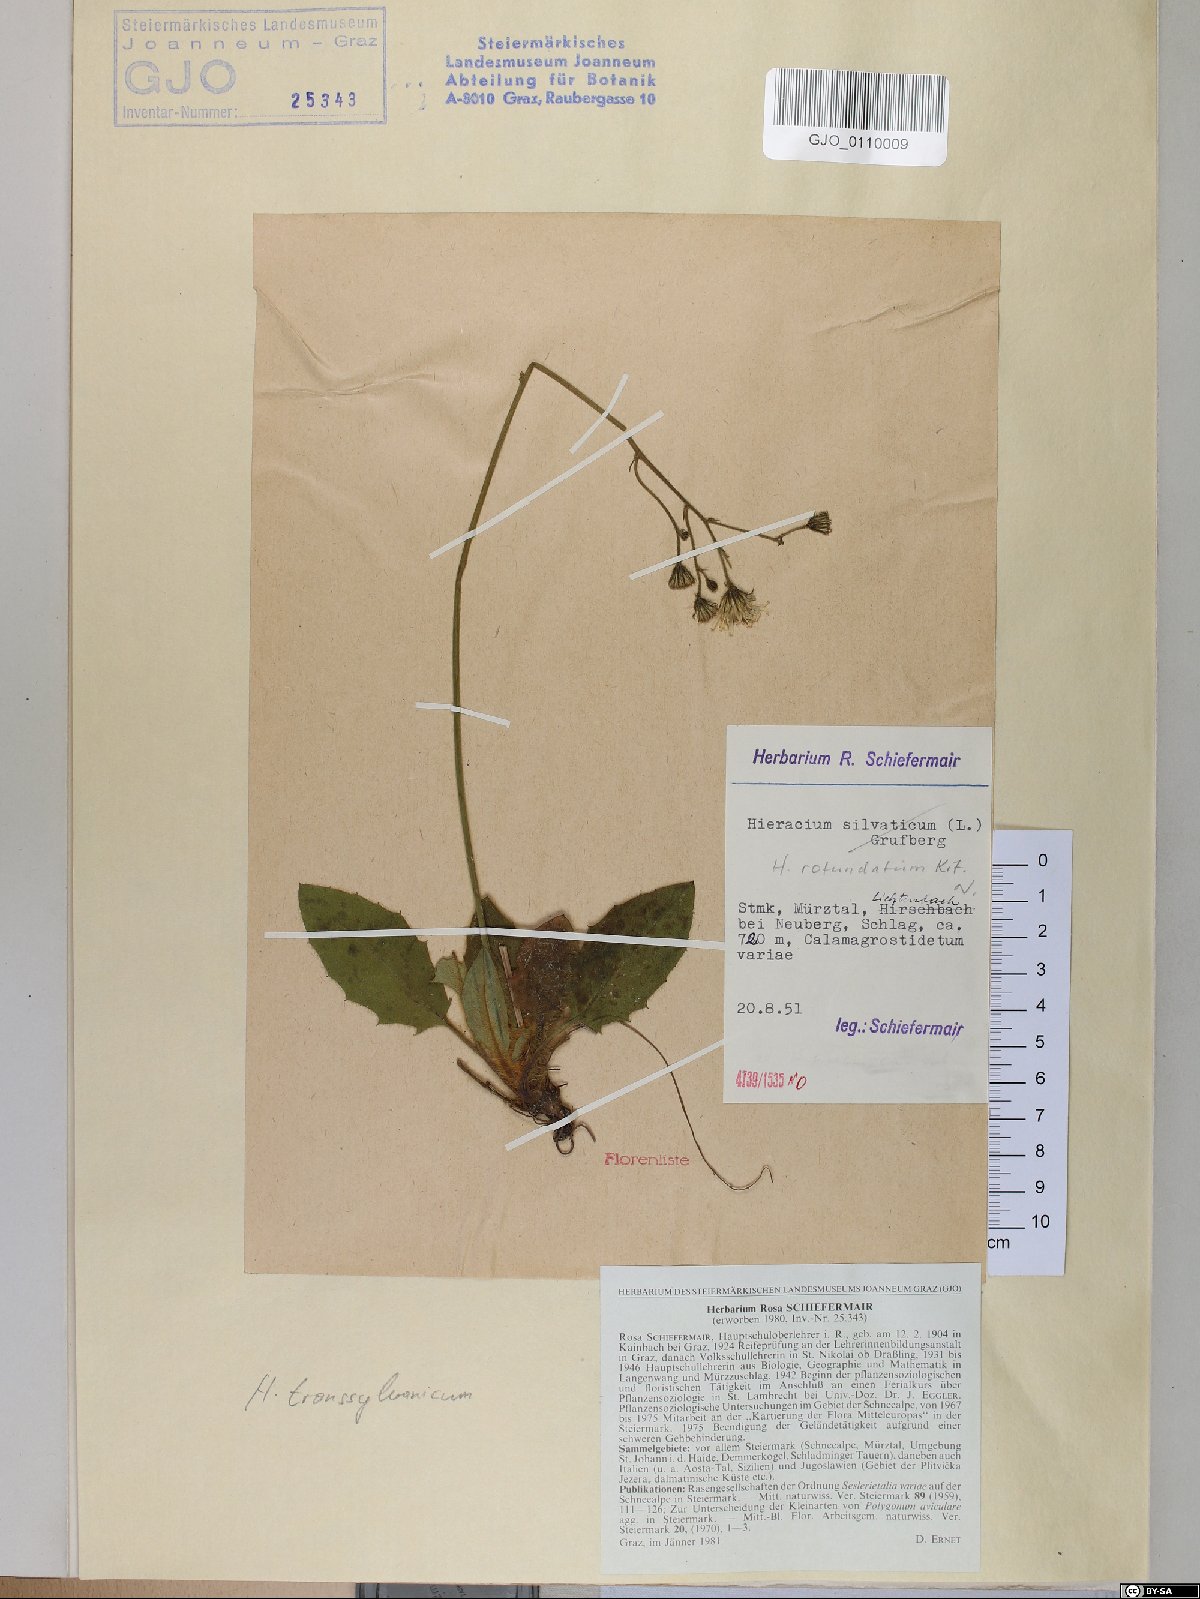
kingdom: Plantae
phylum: Tracheophyta
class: Magnoliopsida
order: Asterales
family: Asteraceae
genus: Hieracium
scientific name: Hieracium rotundatum
